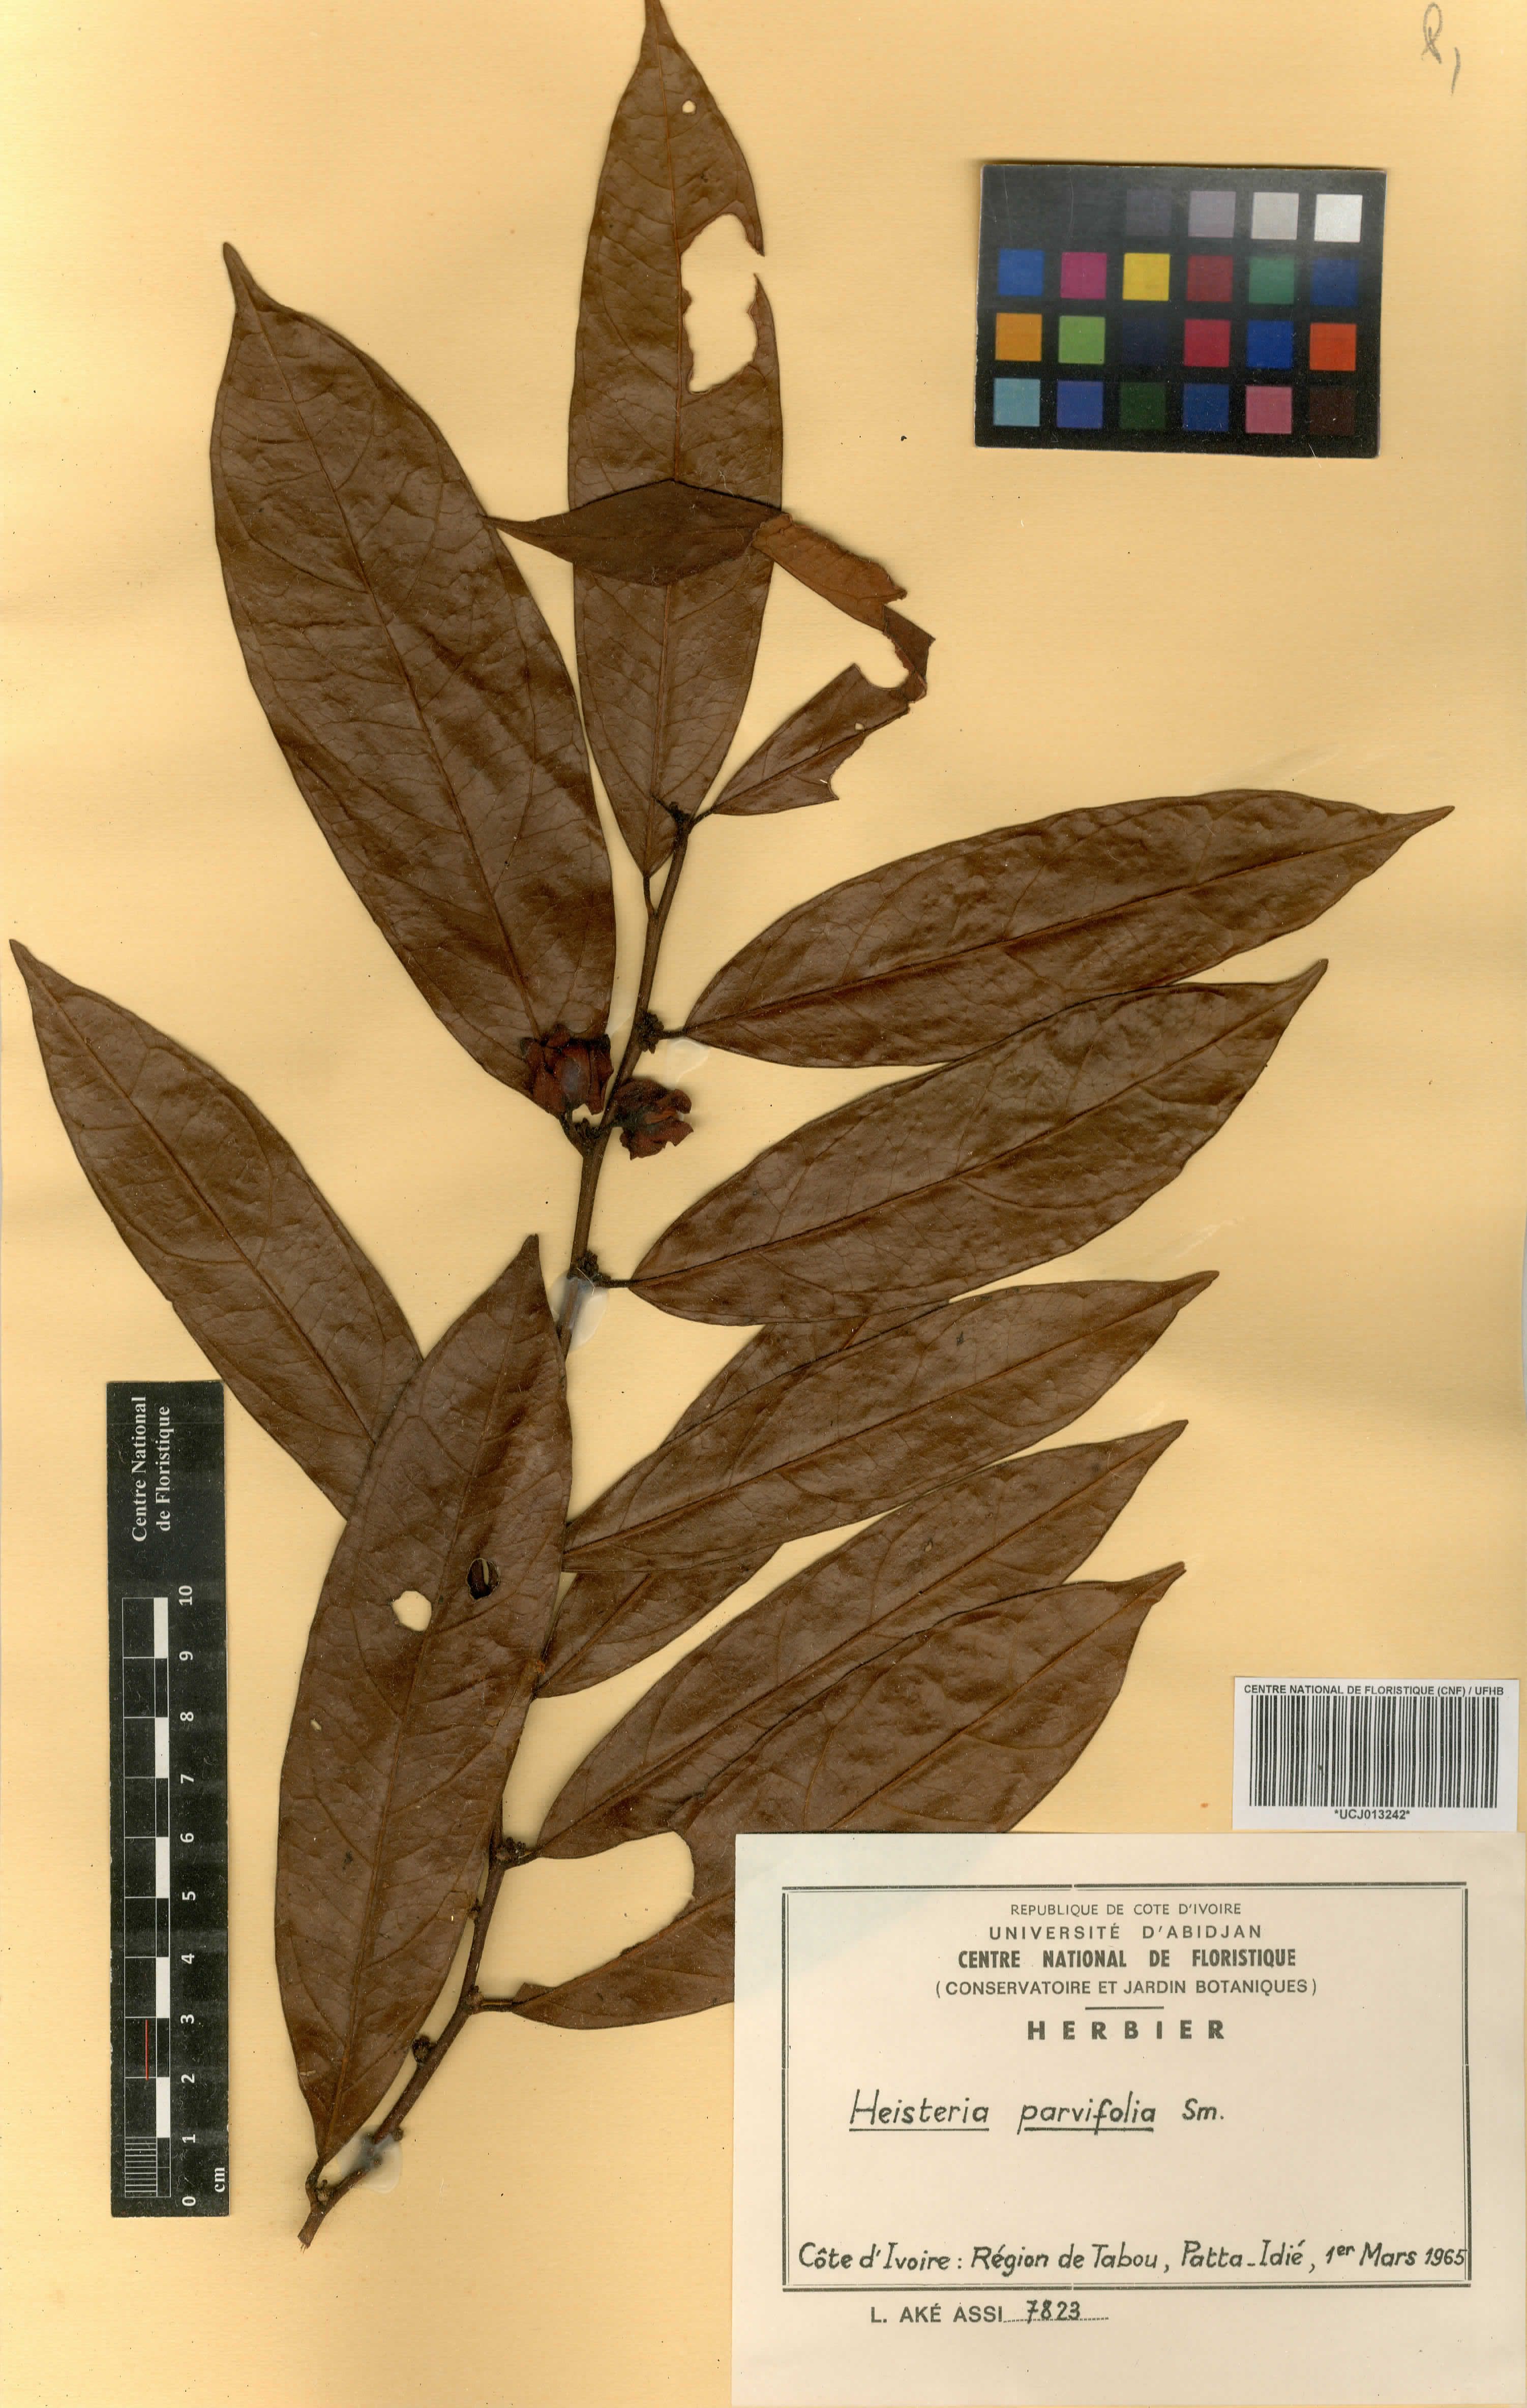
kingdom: Plantae
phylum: Tracheophyta
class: Magnoliopsida
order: Santalales
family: Erythropalaceae
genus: Heisteria
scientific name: Heisteria parvifolia
